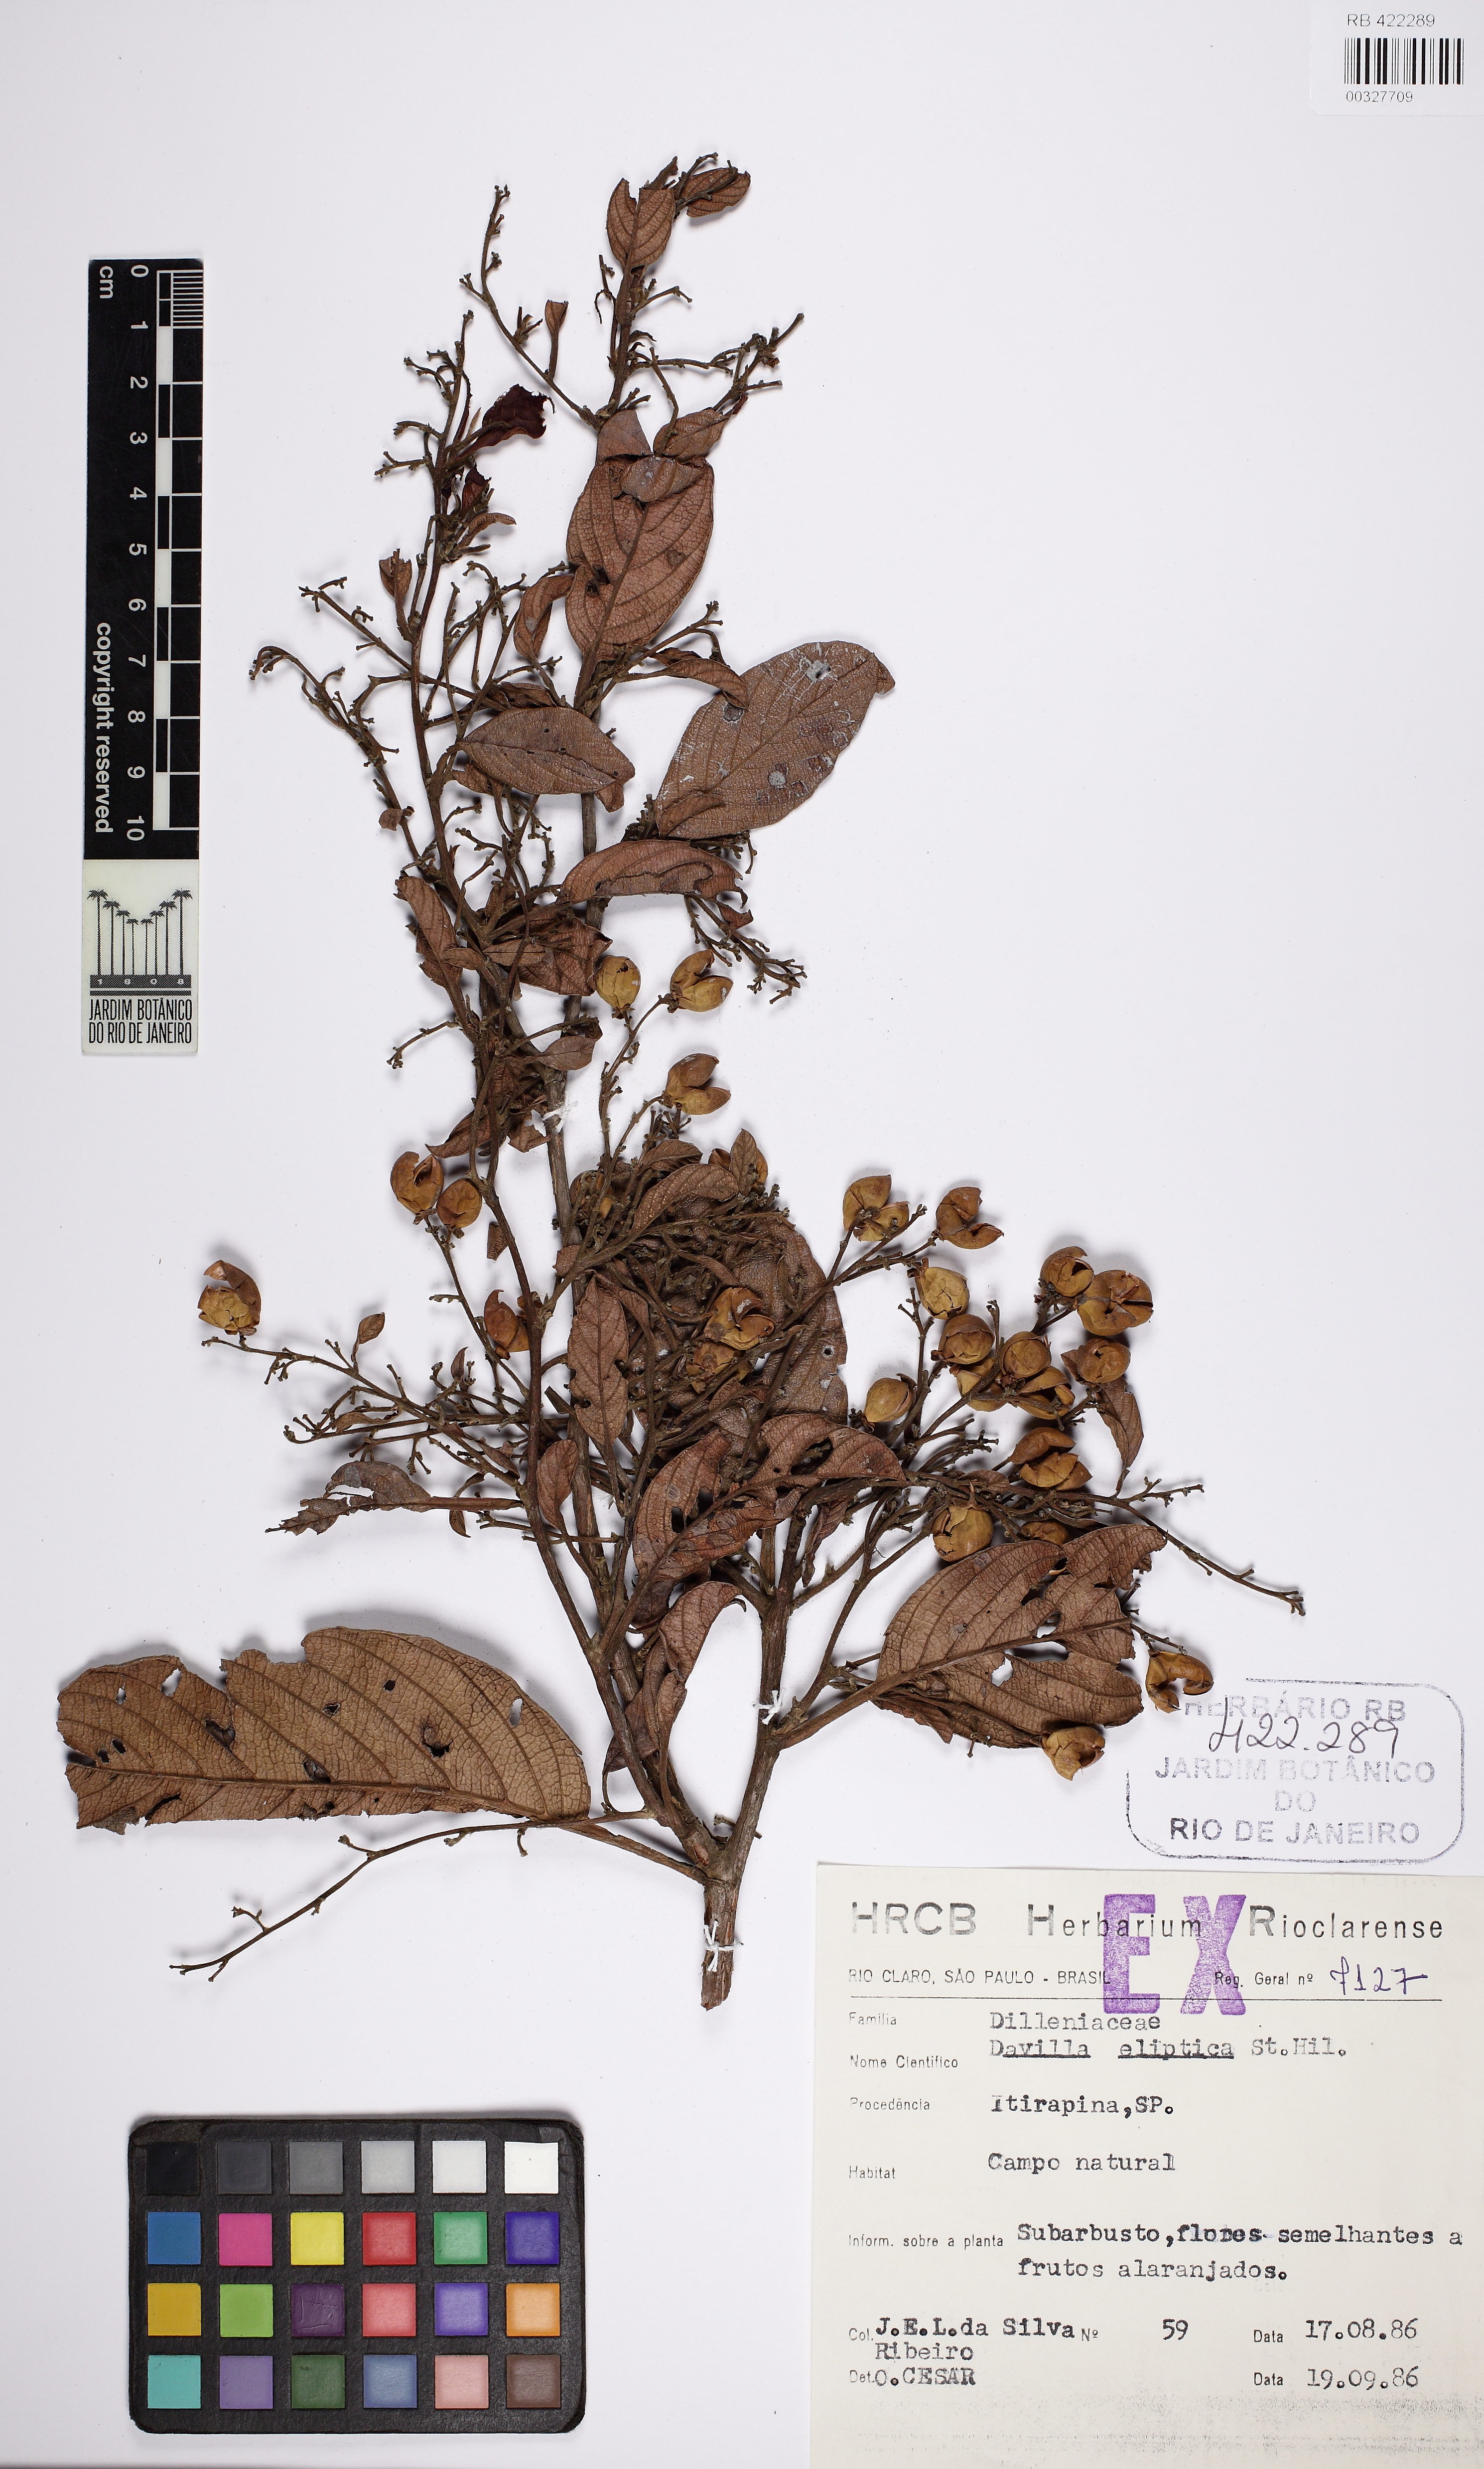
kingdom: Plantae
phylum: Tracheophyta
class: Magnoliopsida
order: Dilleniales
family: Dilleniaceae
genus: Davilla
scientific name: Davilla elliptica
